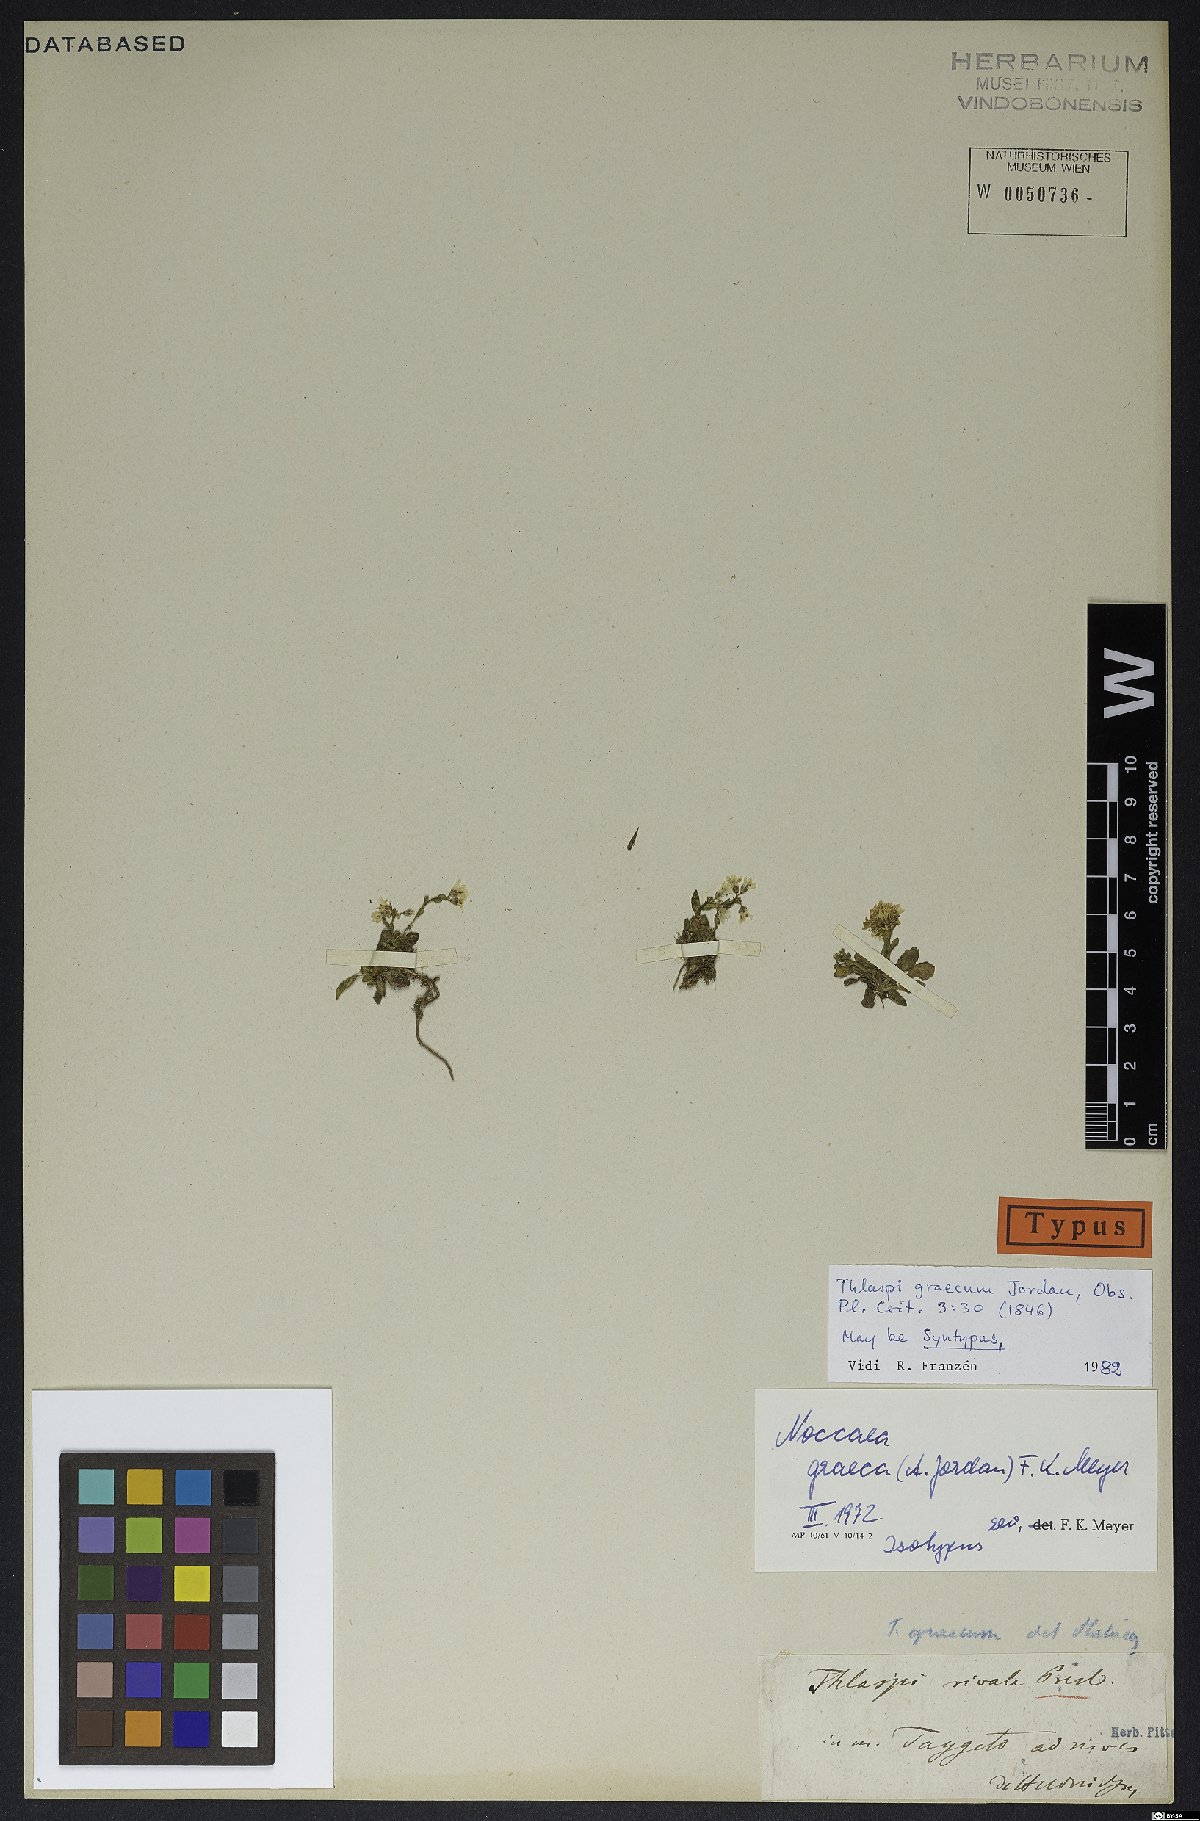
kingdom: Plantae
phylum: Tracheophyta
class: Magnoliopsida
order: Brassicales
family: Brassicaceae
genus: Noccaea
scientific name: Noccaea graeca
